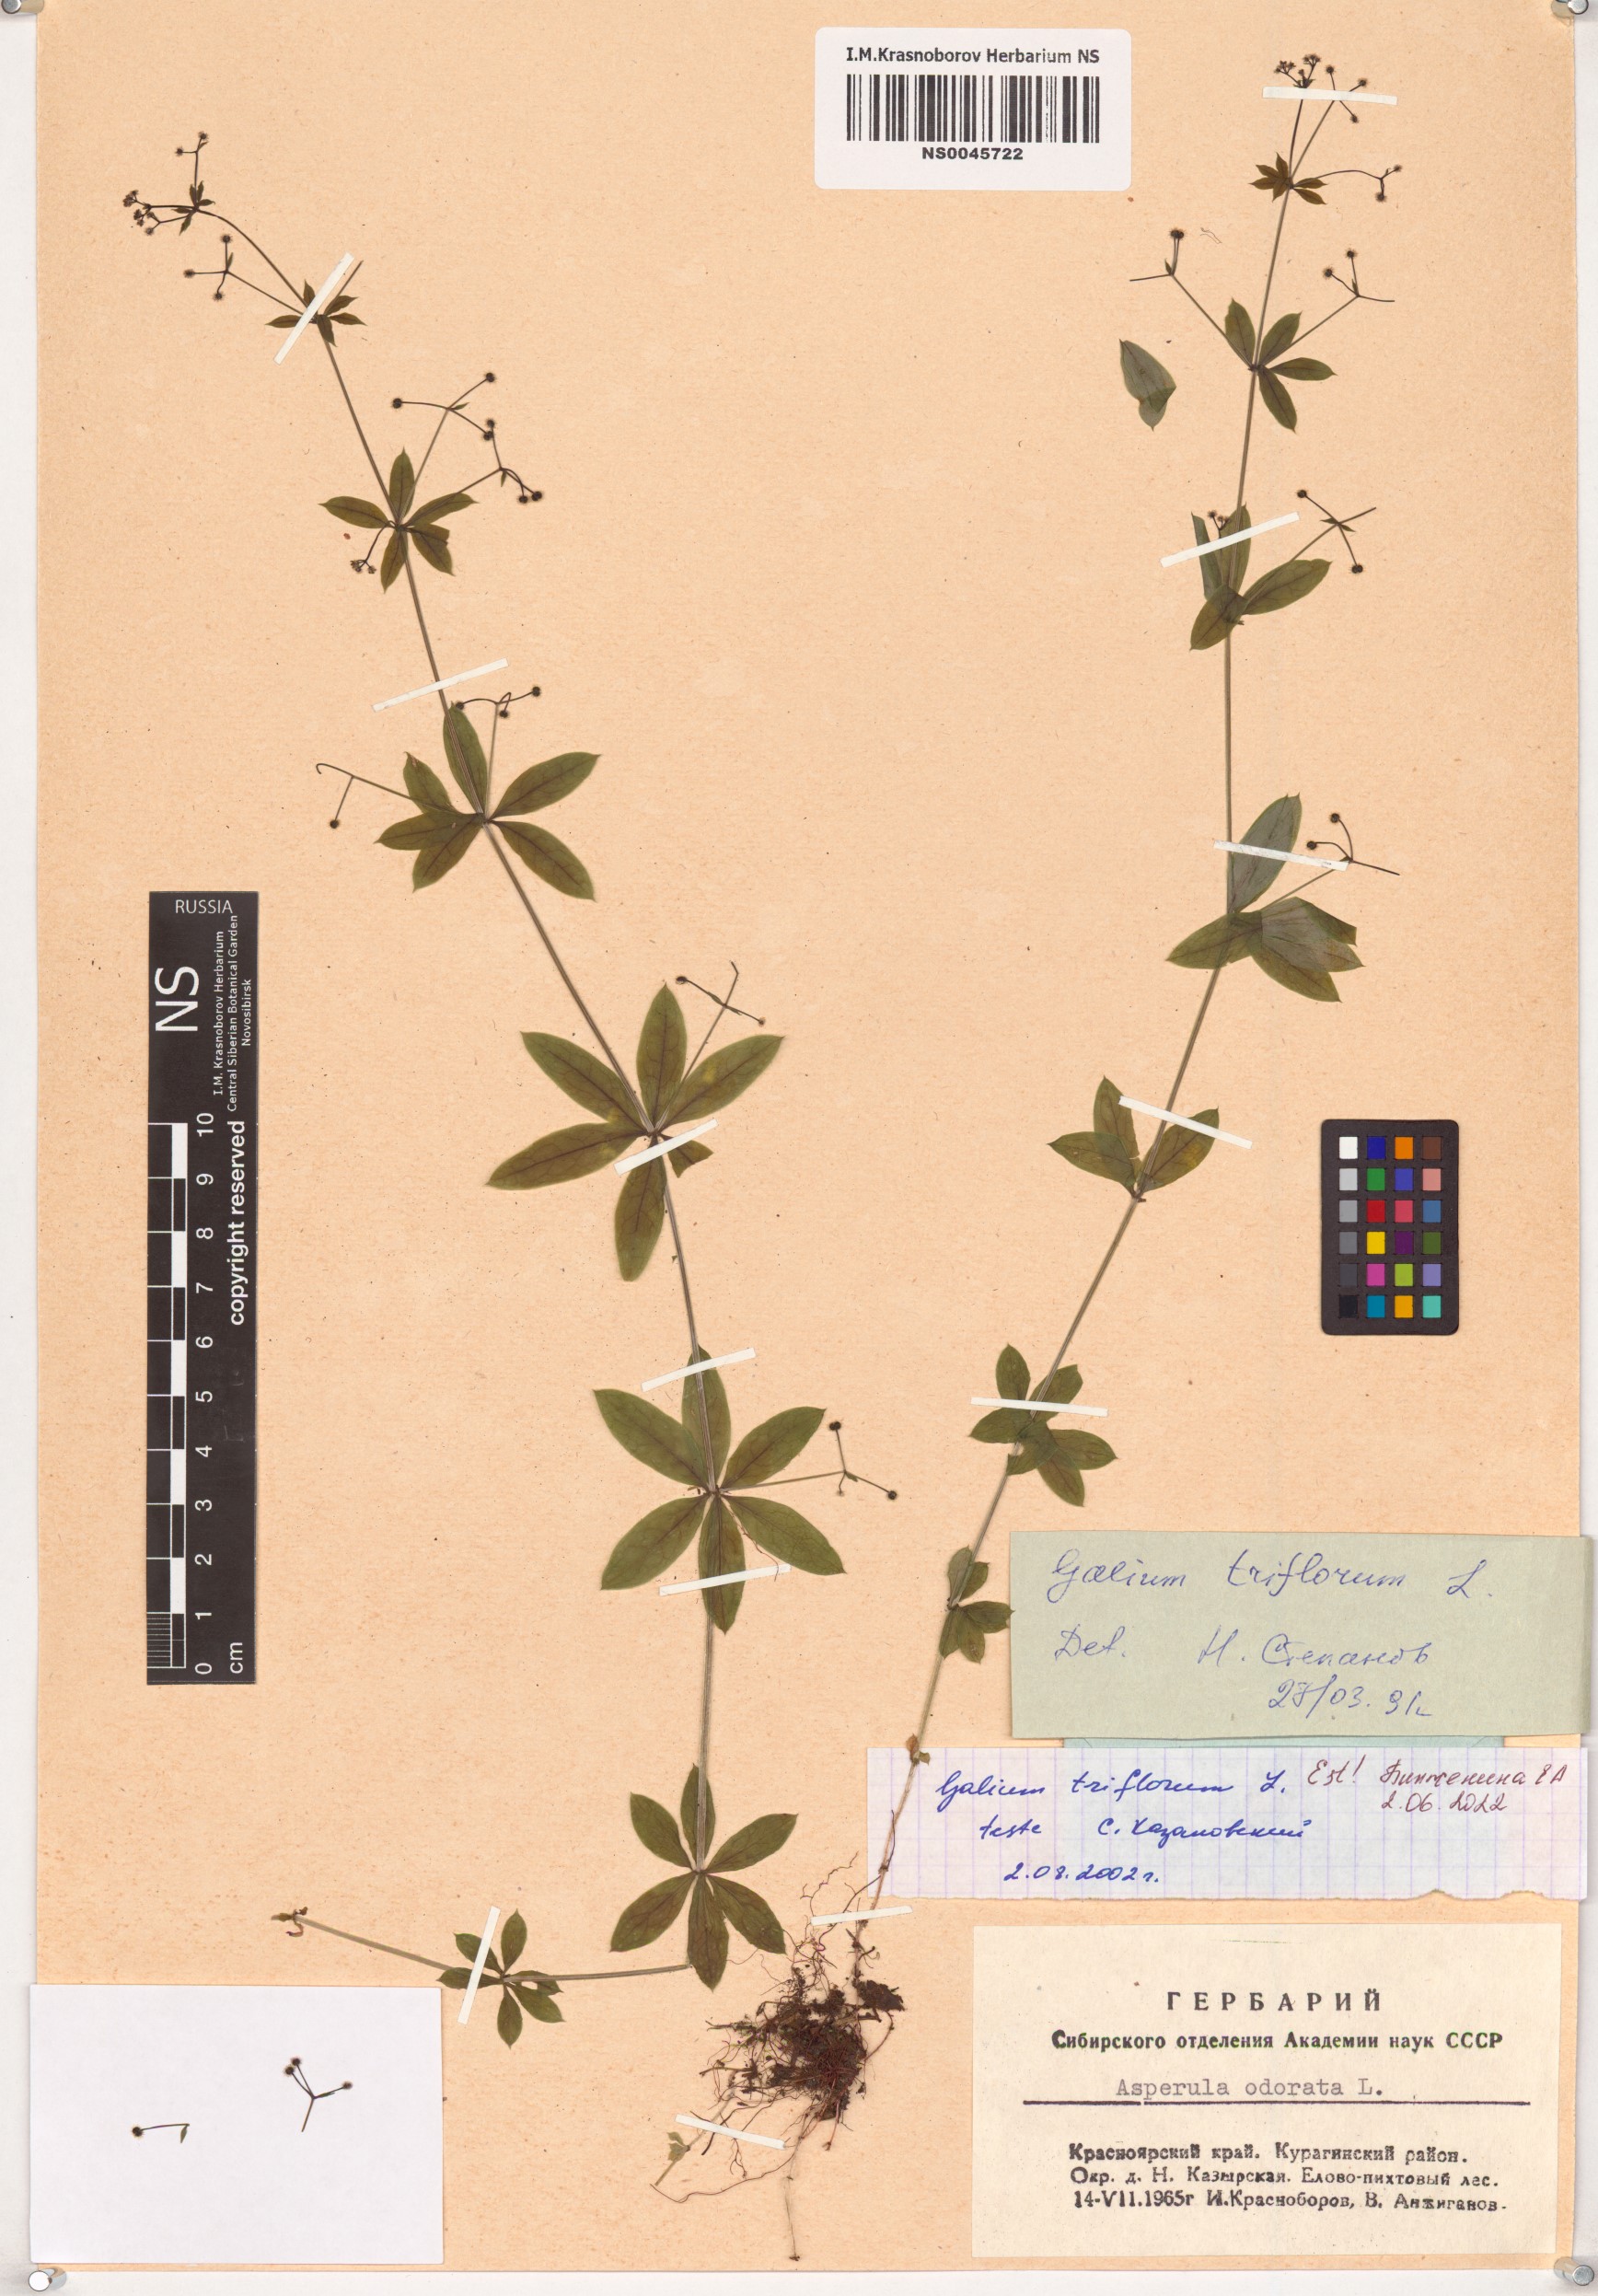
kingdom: Plantae
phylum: Tracheophyta
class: Magnoliopsida
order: Gentianales
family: Rubiaceae
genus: Galium
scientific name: Galium triflorum
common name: Fragrant bedstraw
